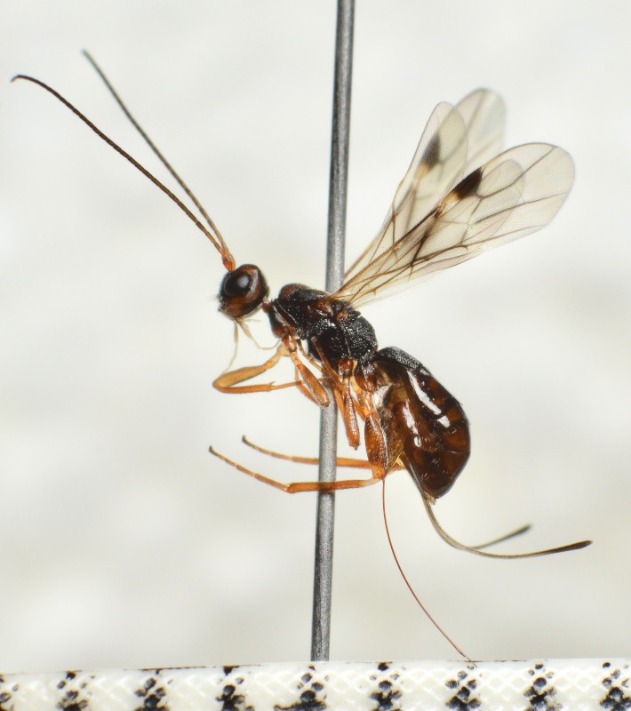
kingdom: Animalia
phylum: Arthropoda
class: Insecta
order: Hymenoptera
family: Braconidae
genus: Dendrosoter
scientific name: Dendrosoter protuberans
